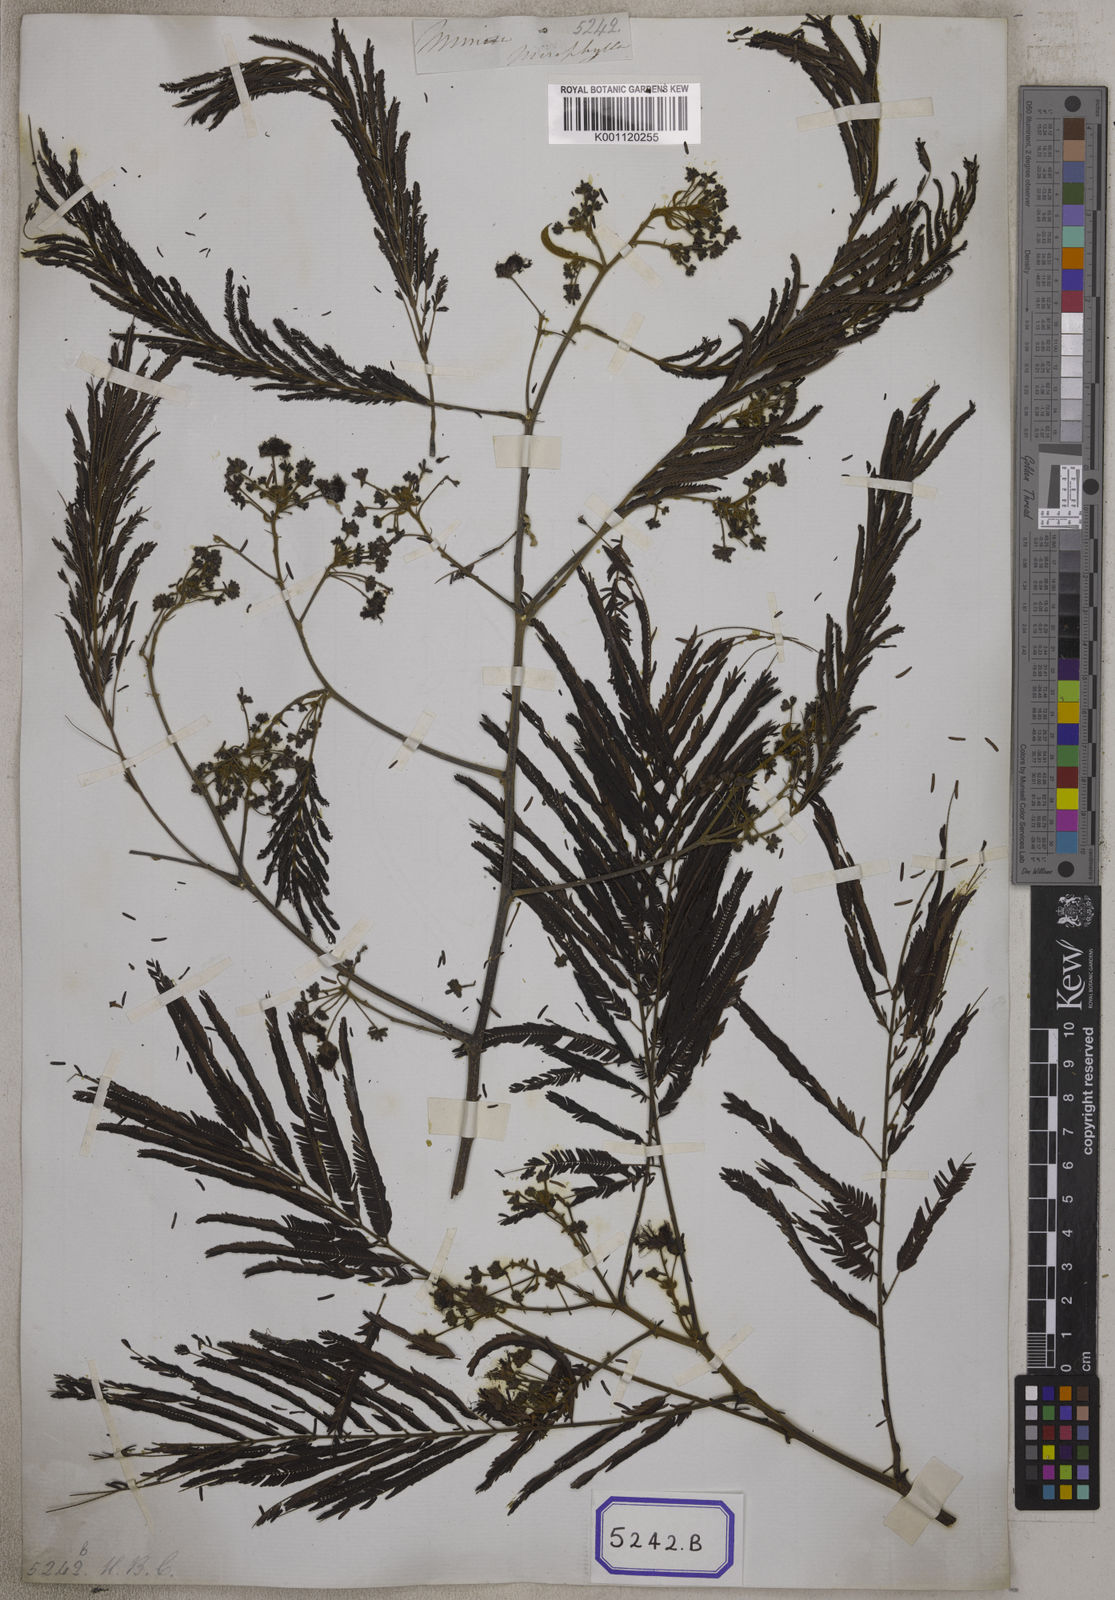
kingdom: Plantae
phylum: Tracheophyta
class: Magnoliopsida
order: Fabales
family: Fabaceae
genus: Acacia
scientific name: Acacia
